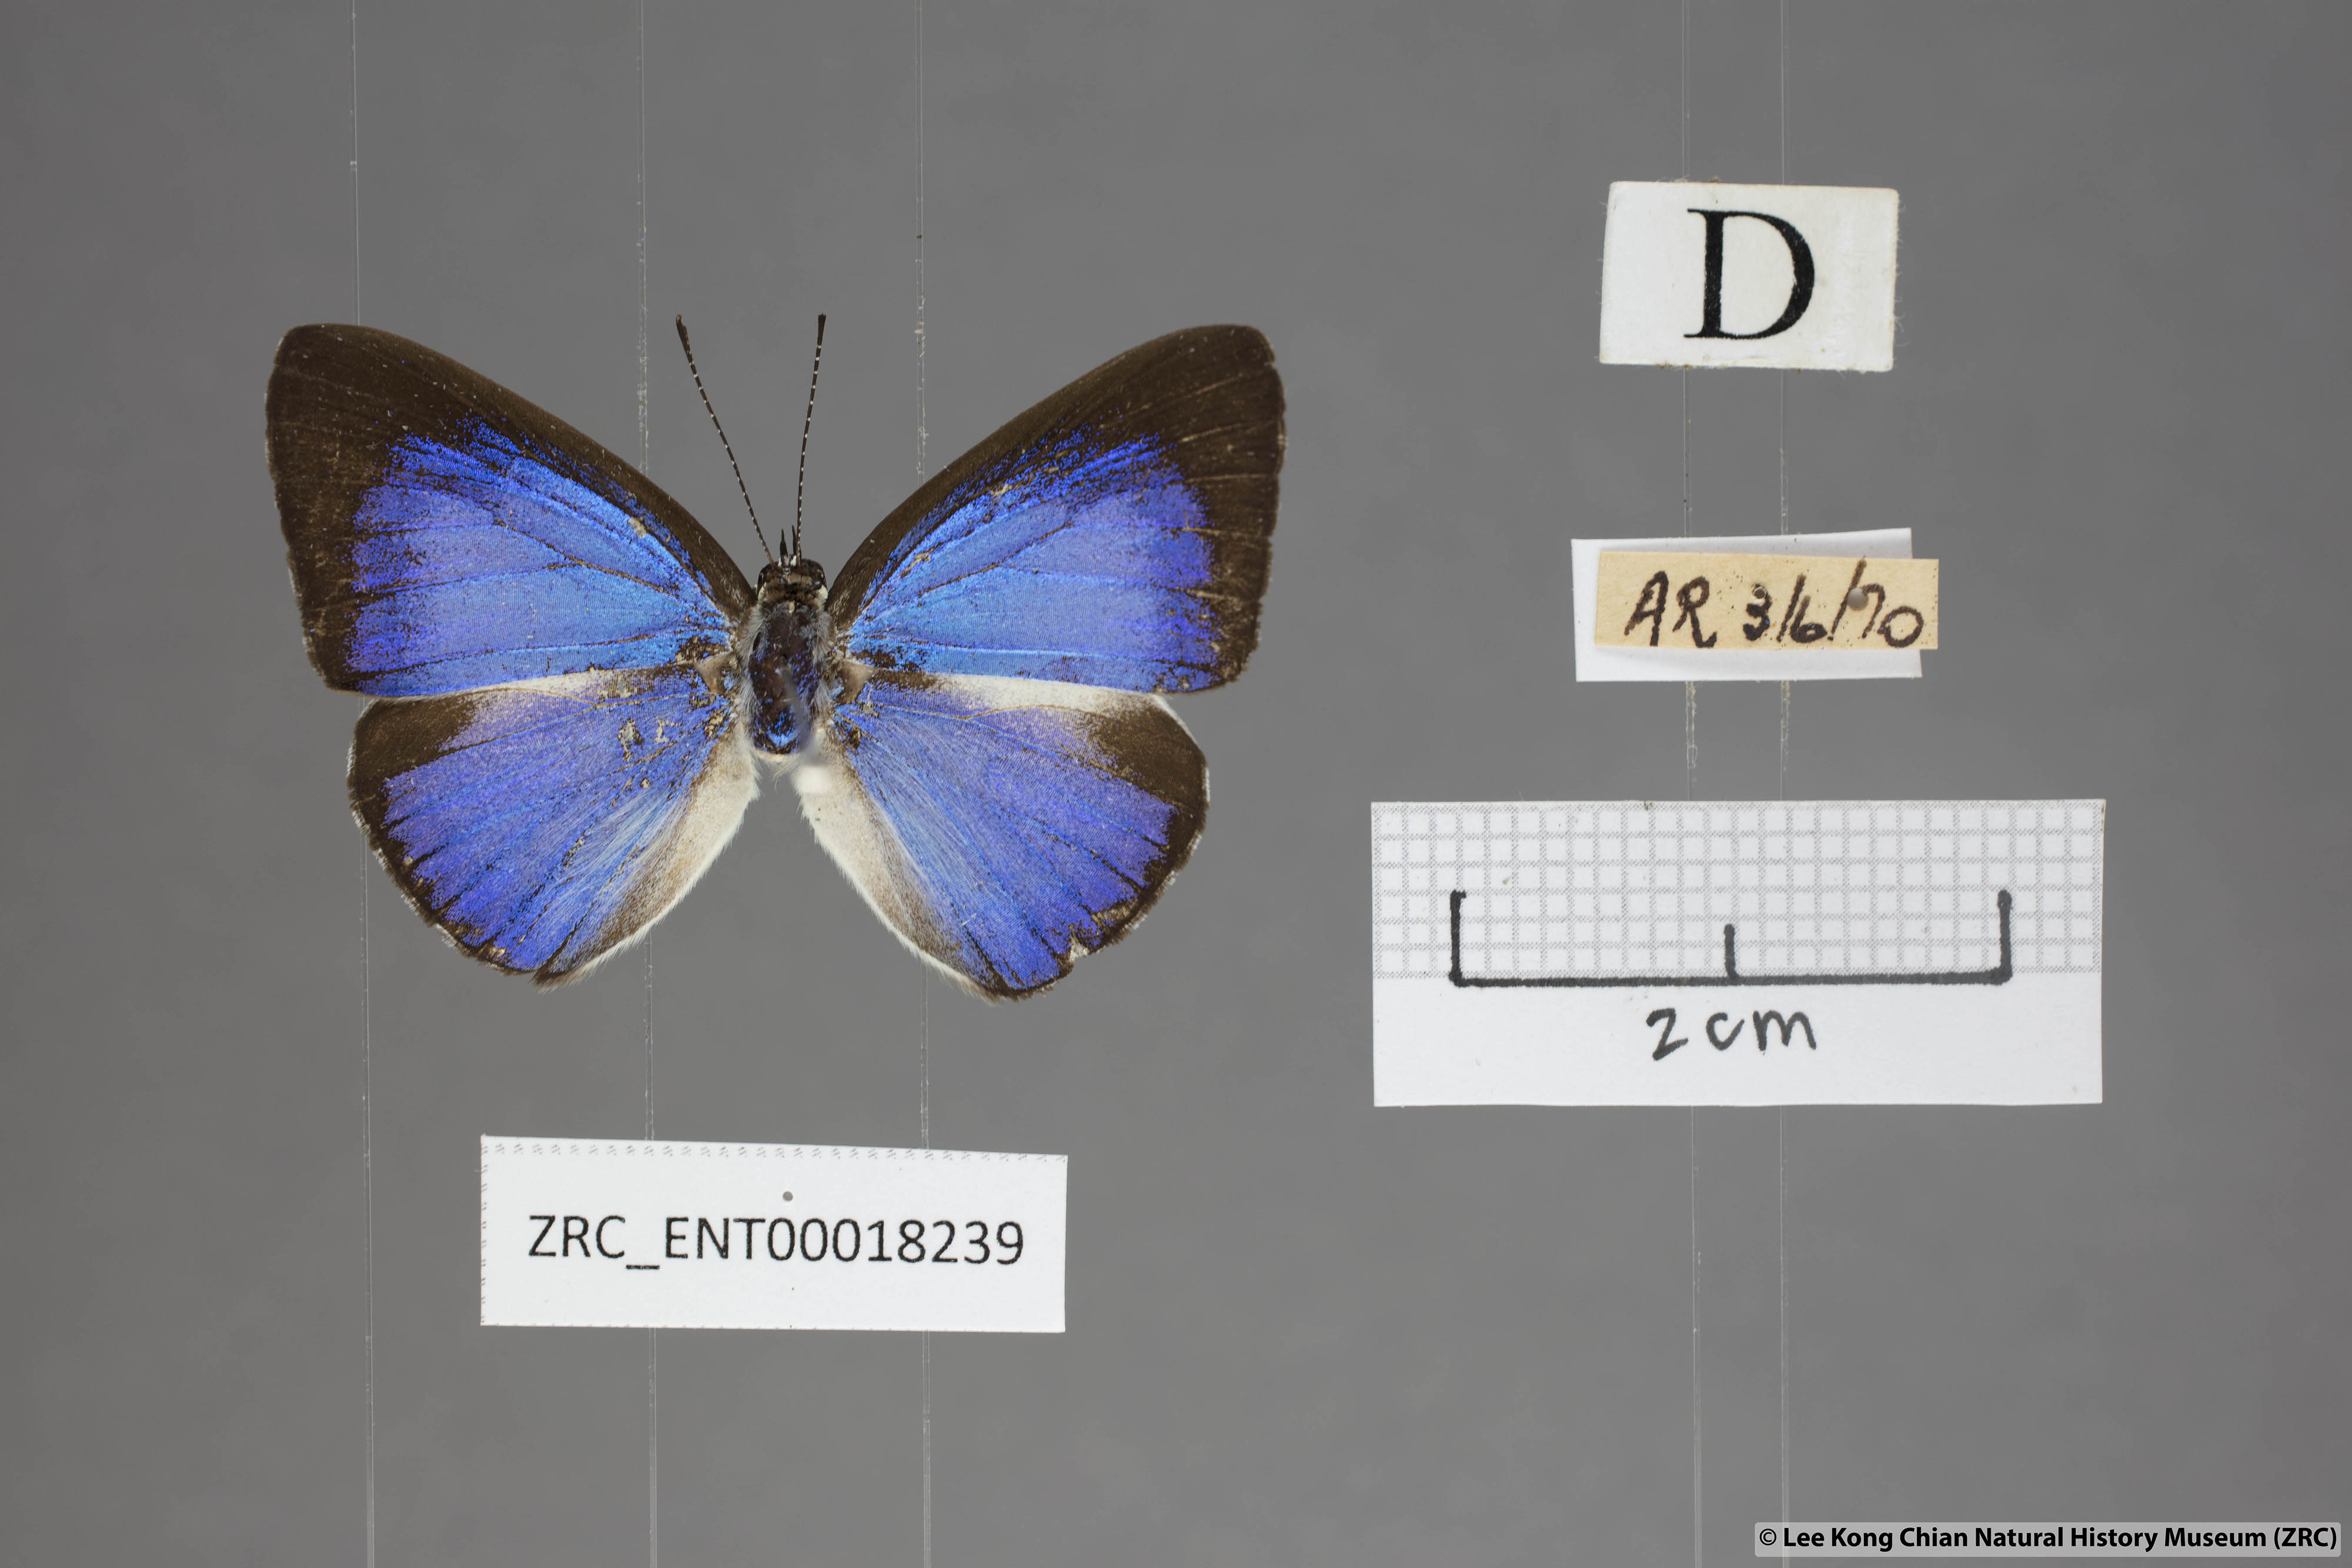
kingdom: Animalia
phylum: Arthropoda
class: Insecta
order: Lepidoptera
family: Lycaenidae
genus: Lycaenopsis
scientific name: Lycaenopsis haraldus
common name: Felder's hedge blue
